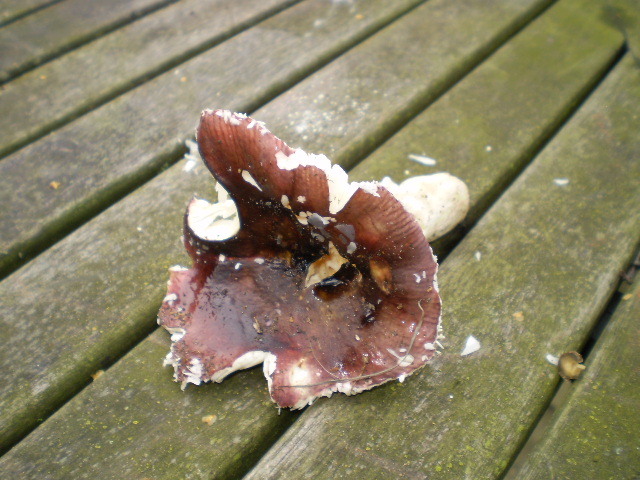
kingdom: Fungi
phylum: Basidiomycota
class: Agaricomycetes
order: Russulales
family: Russulaceae
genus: Russula
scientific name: Russula atropurpurea
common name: purpurbroget skørhat
